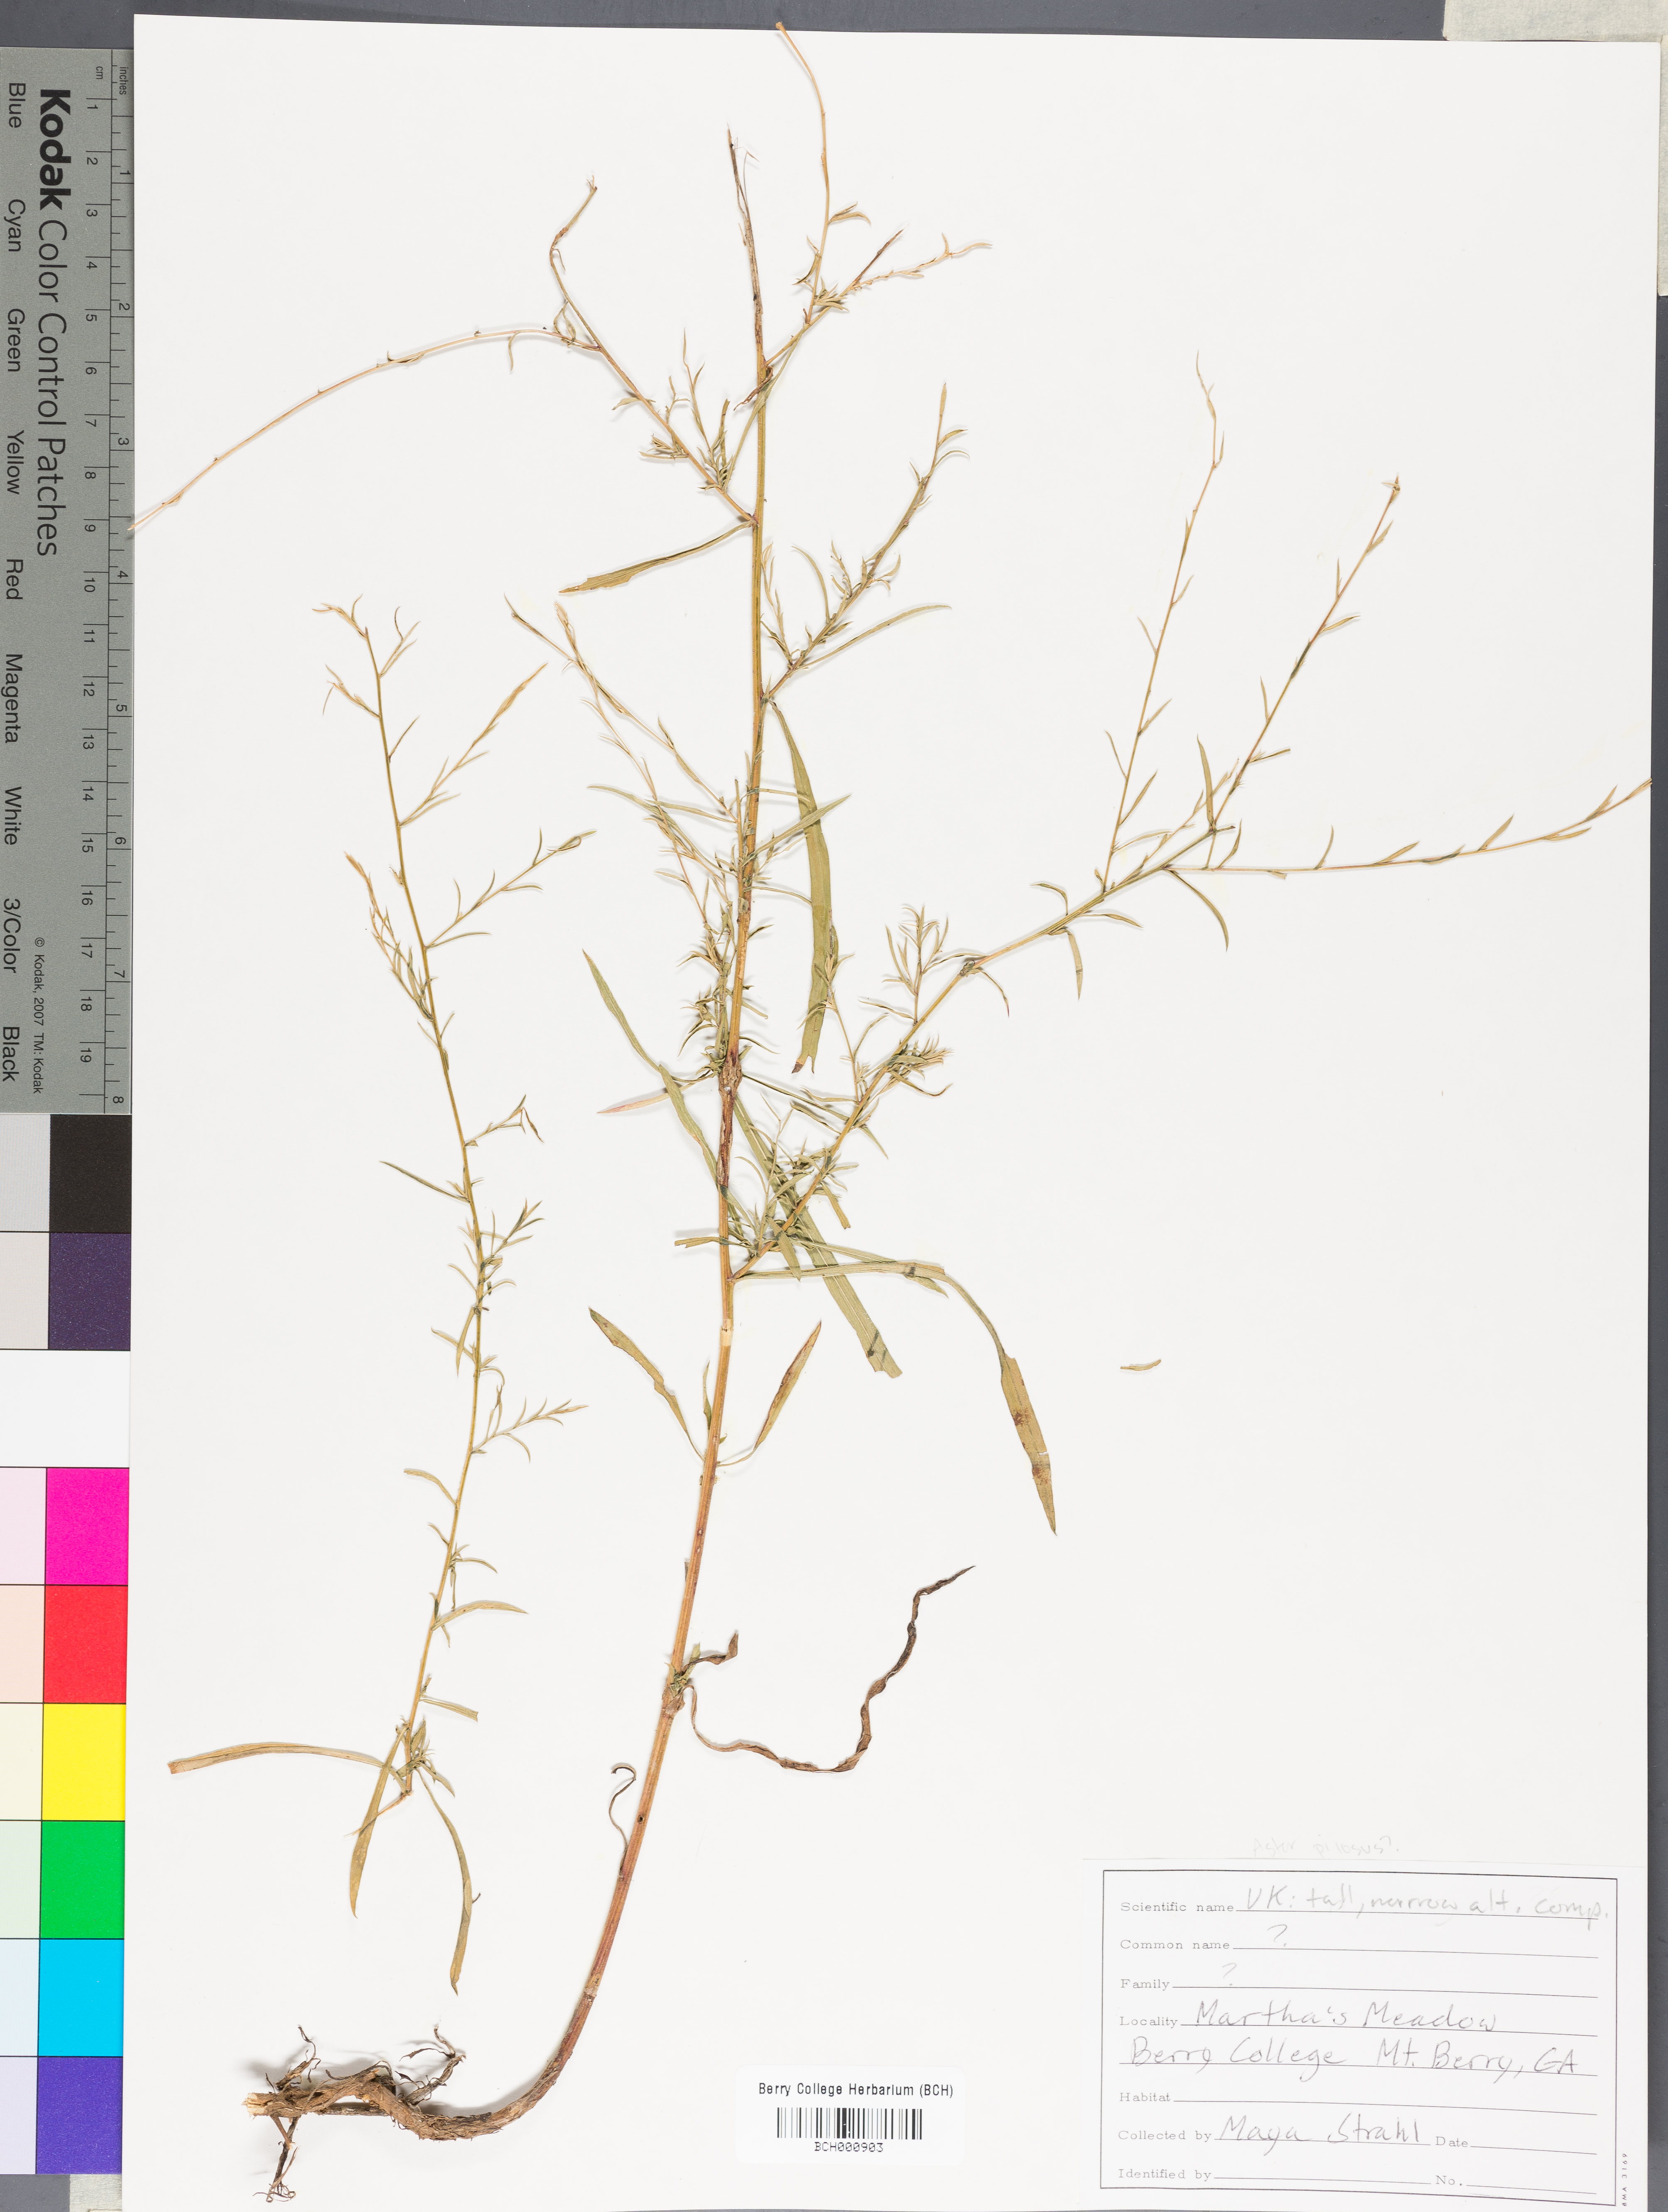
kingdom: Plantae
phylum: Tracheophyta
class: Magnoliopsida
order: Lamiales
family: Acanthaceae
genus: Adhatoda
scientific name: Adhatoda
